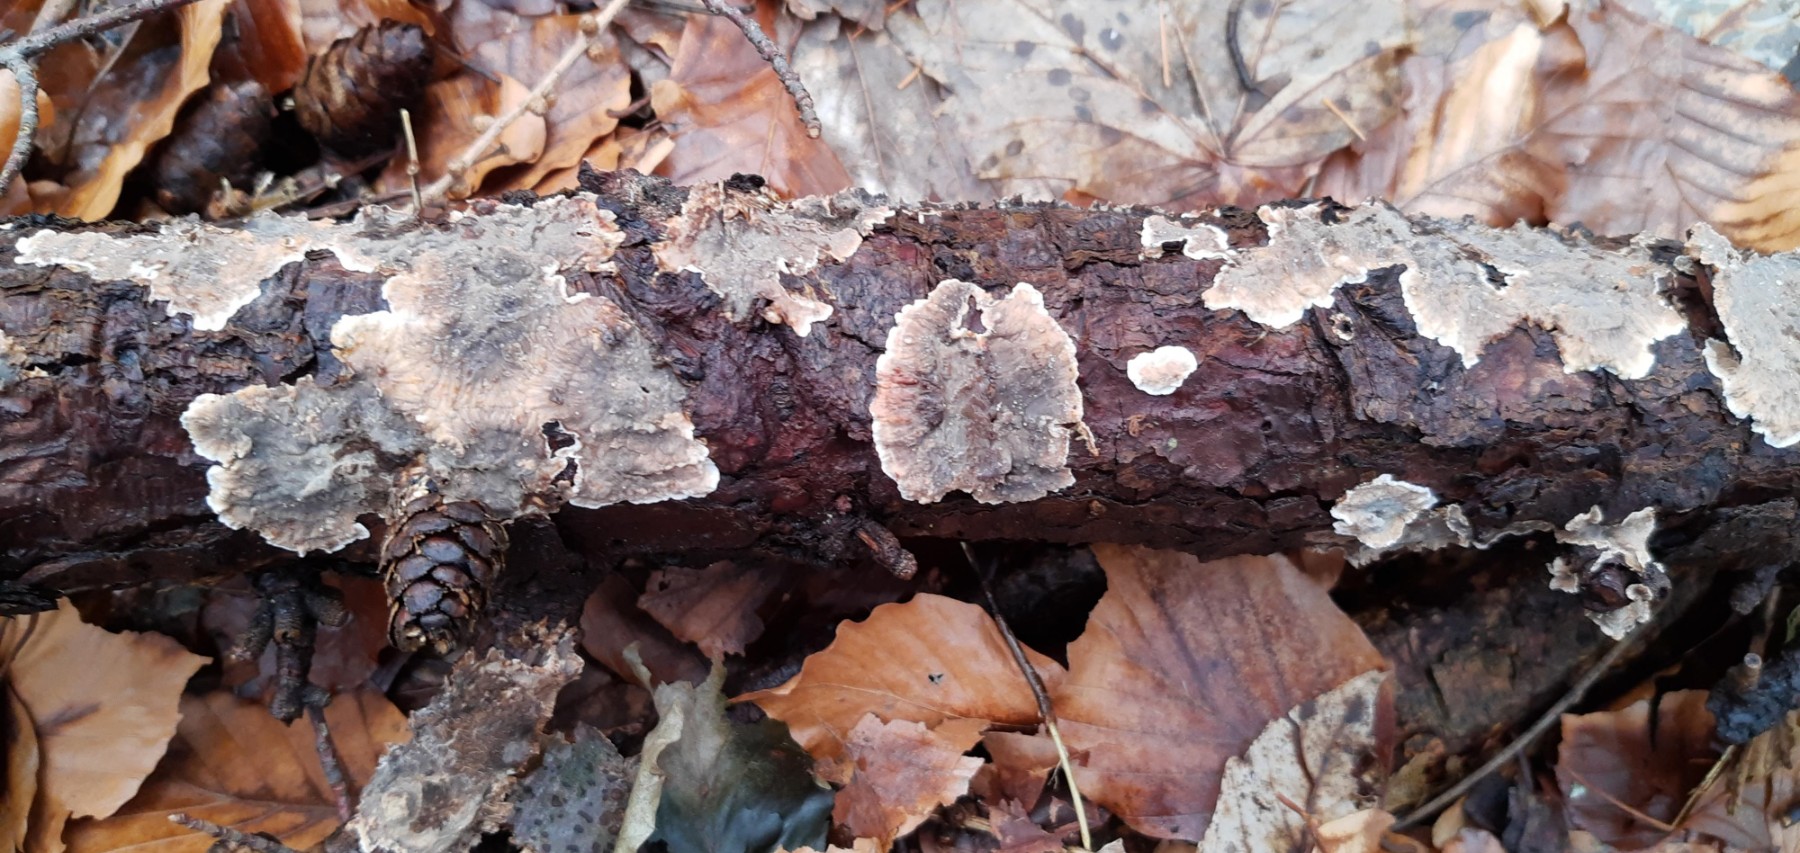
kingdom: Fungi
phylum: Basidiomycota
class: Agaricomycetes
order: Russulales
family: Stereaceae
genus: Stereum
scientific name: Stereum sanguinolentum
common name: blødende lædersvamp
